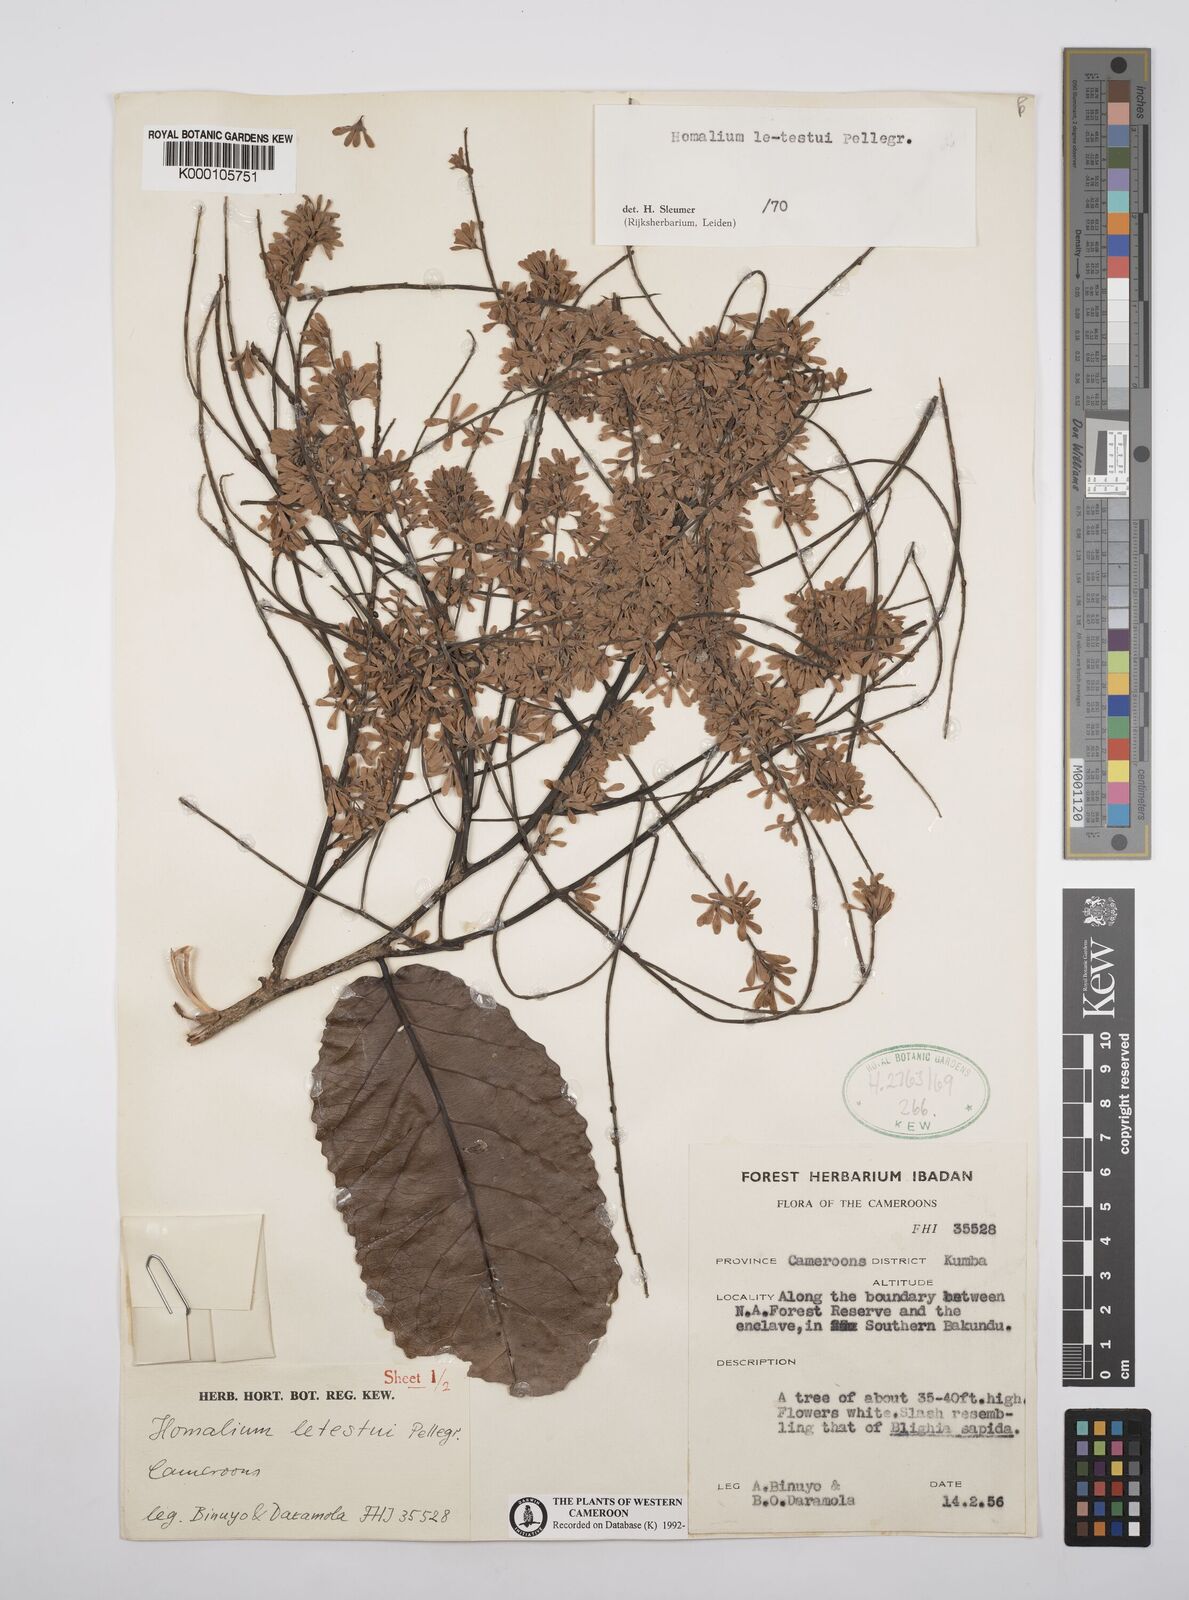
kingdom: Plantae
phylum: Tracheophyta
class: Magnoliopsida
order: Malpighiales
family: Salicaceae
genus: Homalium
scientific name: Homalium letestui
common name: African homalium
